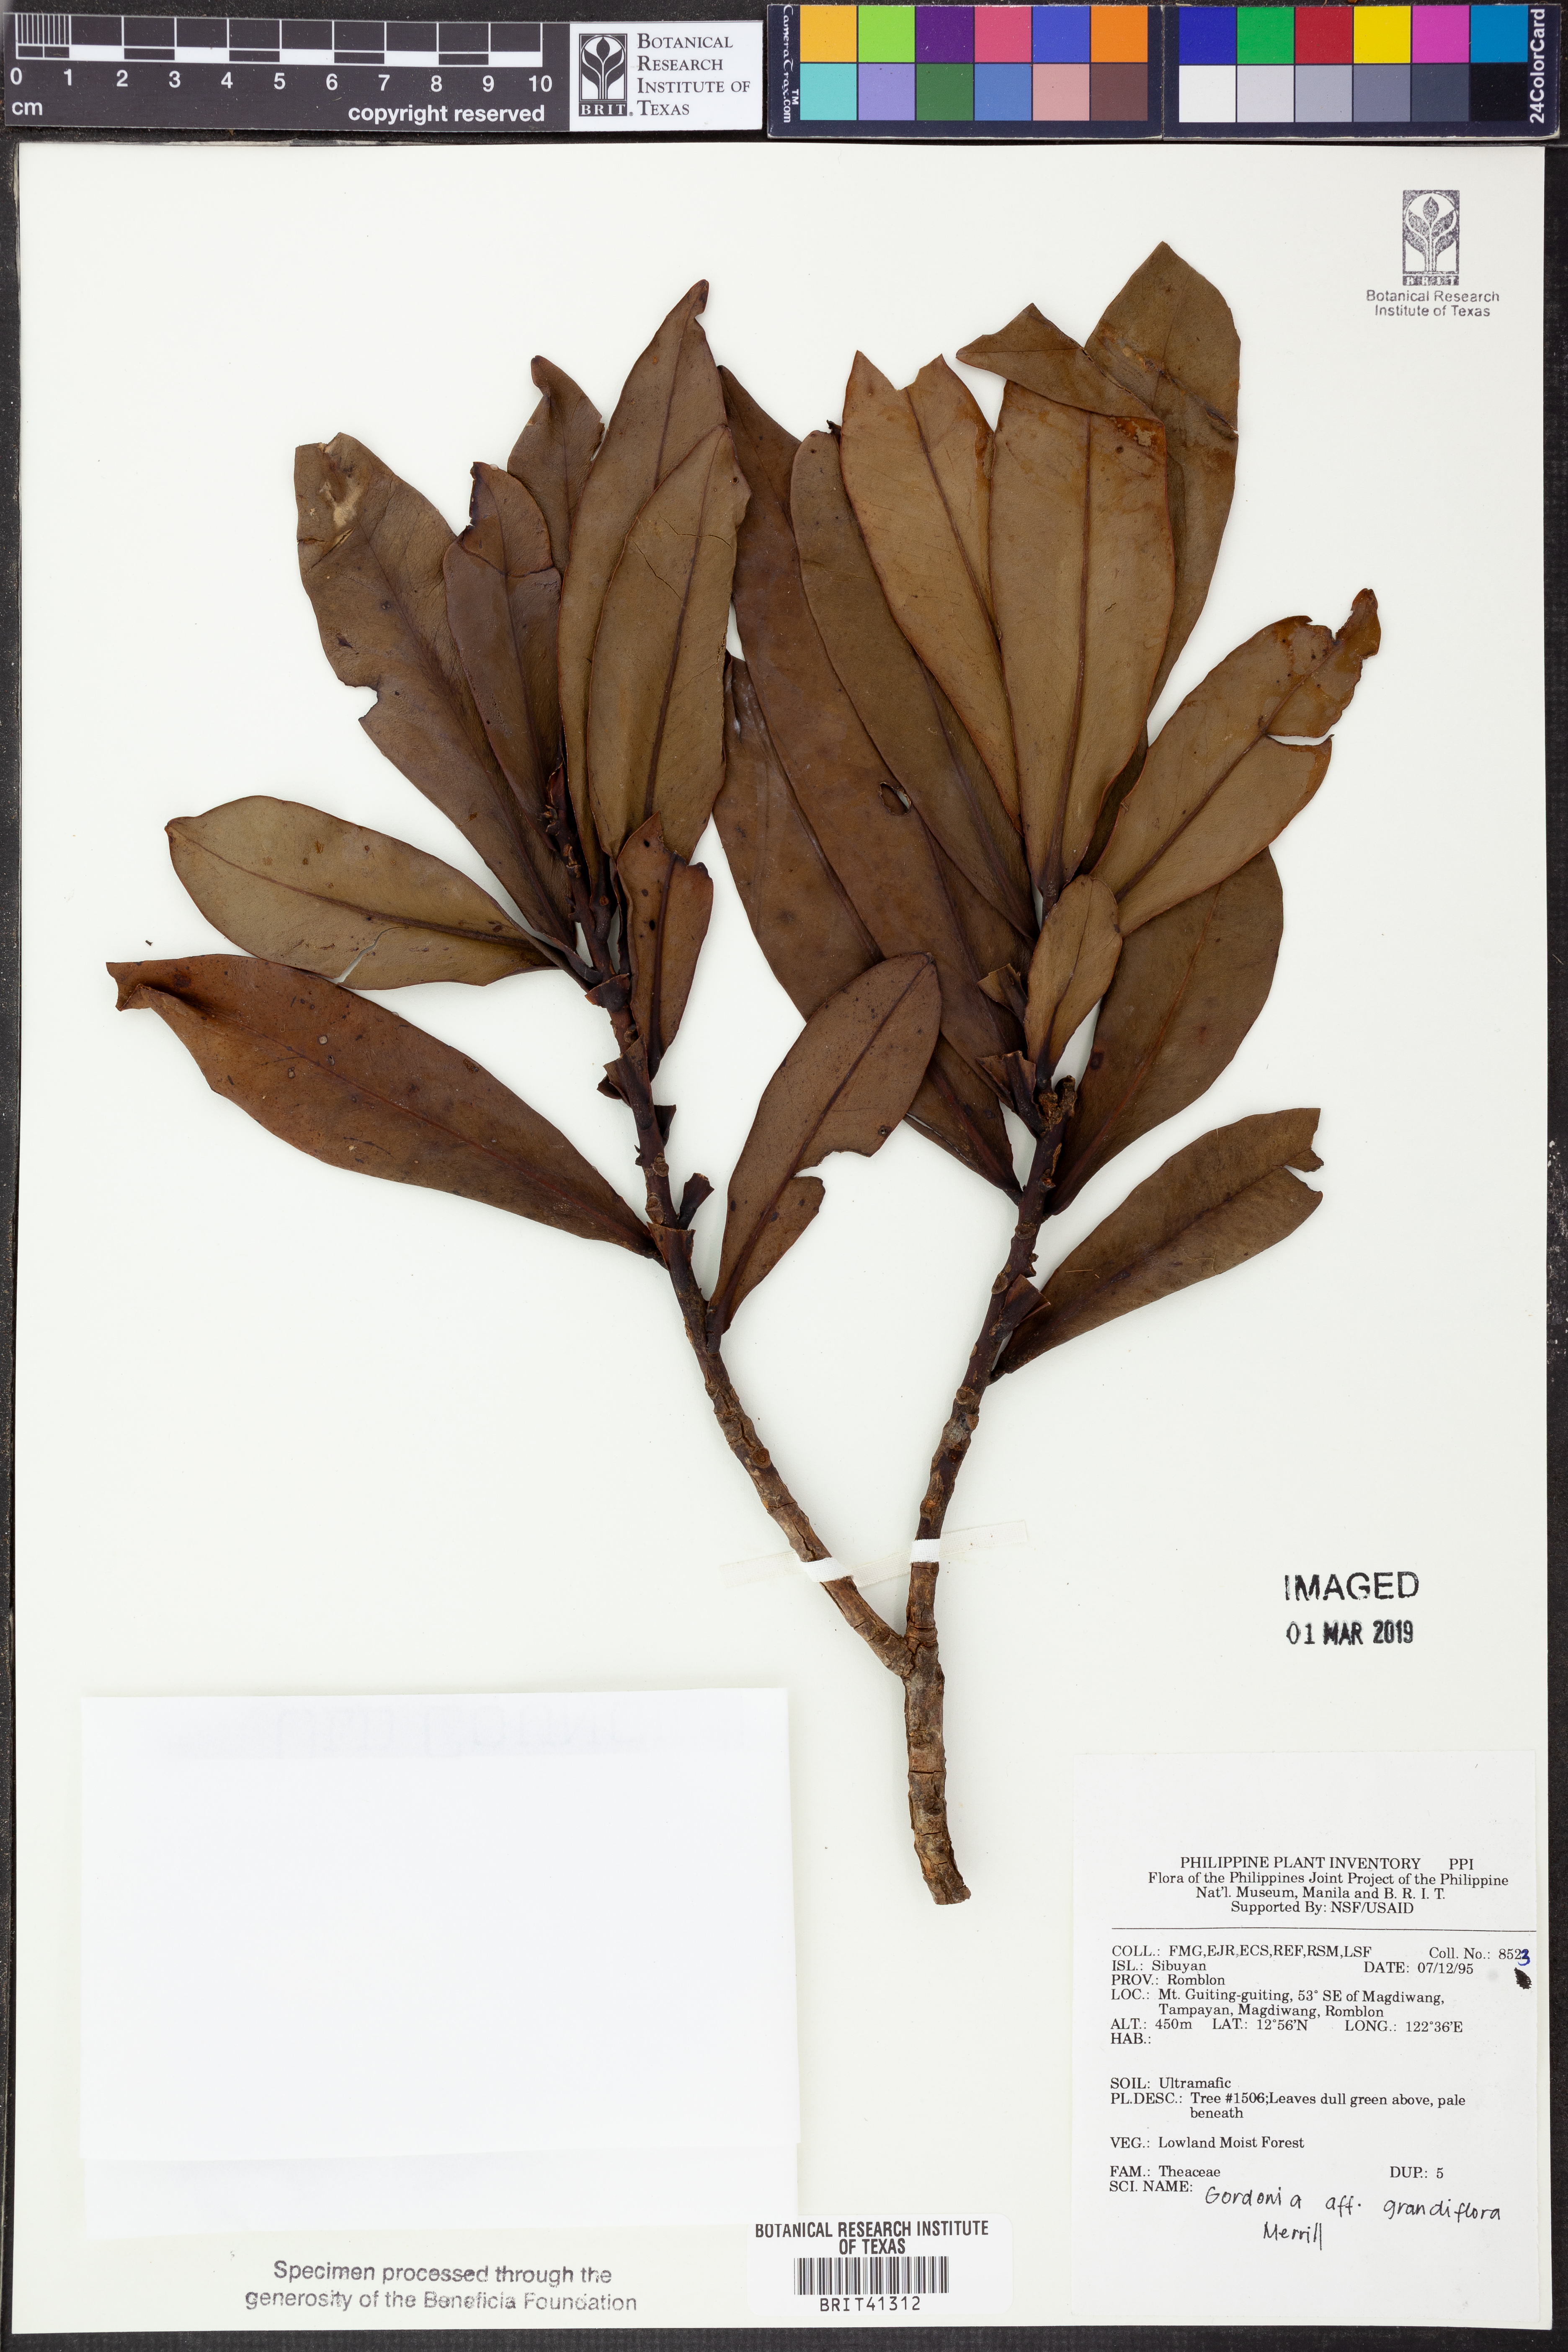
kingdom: Plantae
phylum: Tracheophyta
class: Magnoliopsida
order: Ericales
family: Theaceae
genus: Polyspora
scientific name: Polyspora grandiflora
